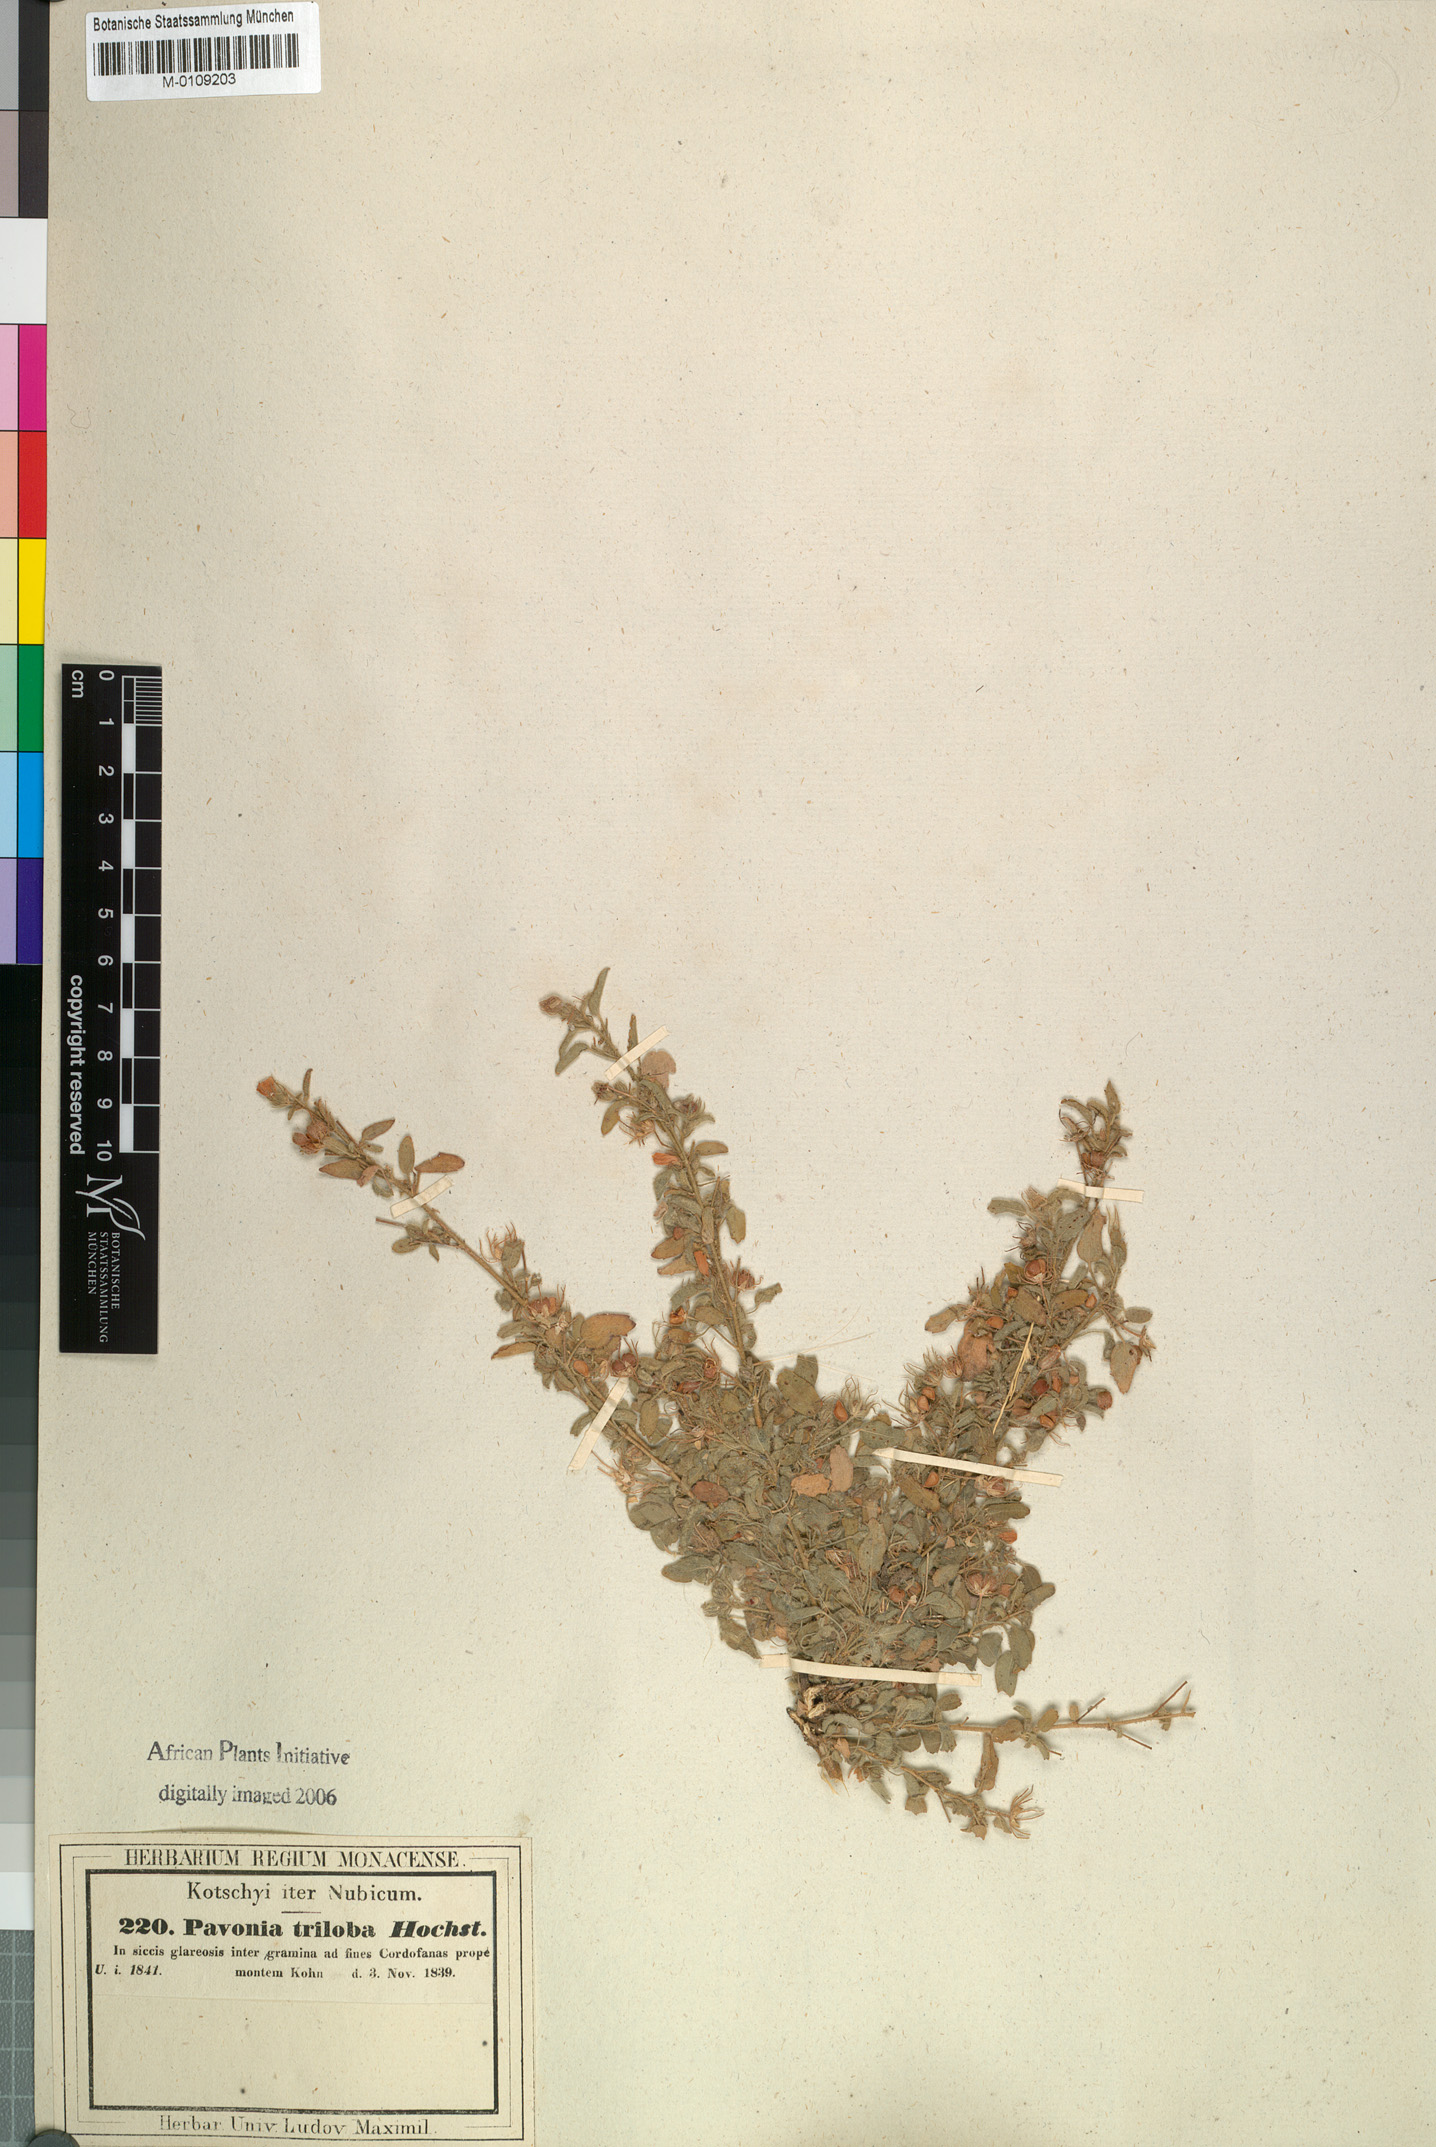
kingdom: Plantae
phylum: Tracheophyta
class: Magnoliopsida
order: Malvales
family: Malvaceae
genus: Pavonia
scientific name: Pavonia triloba
